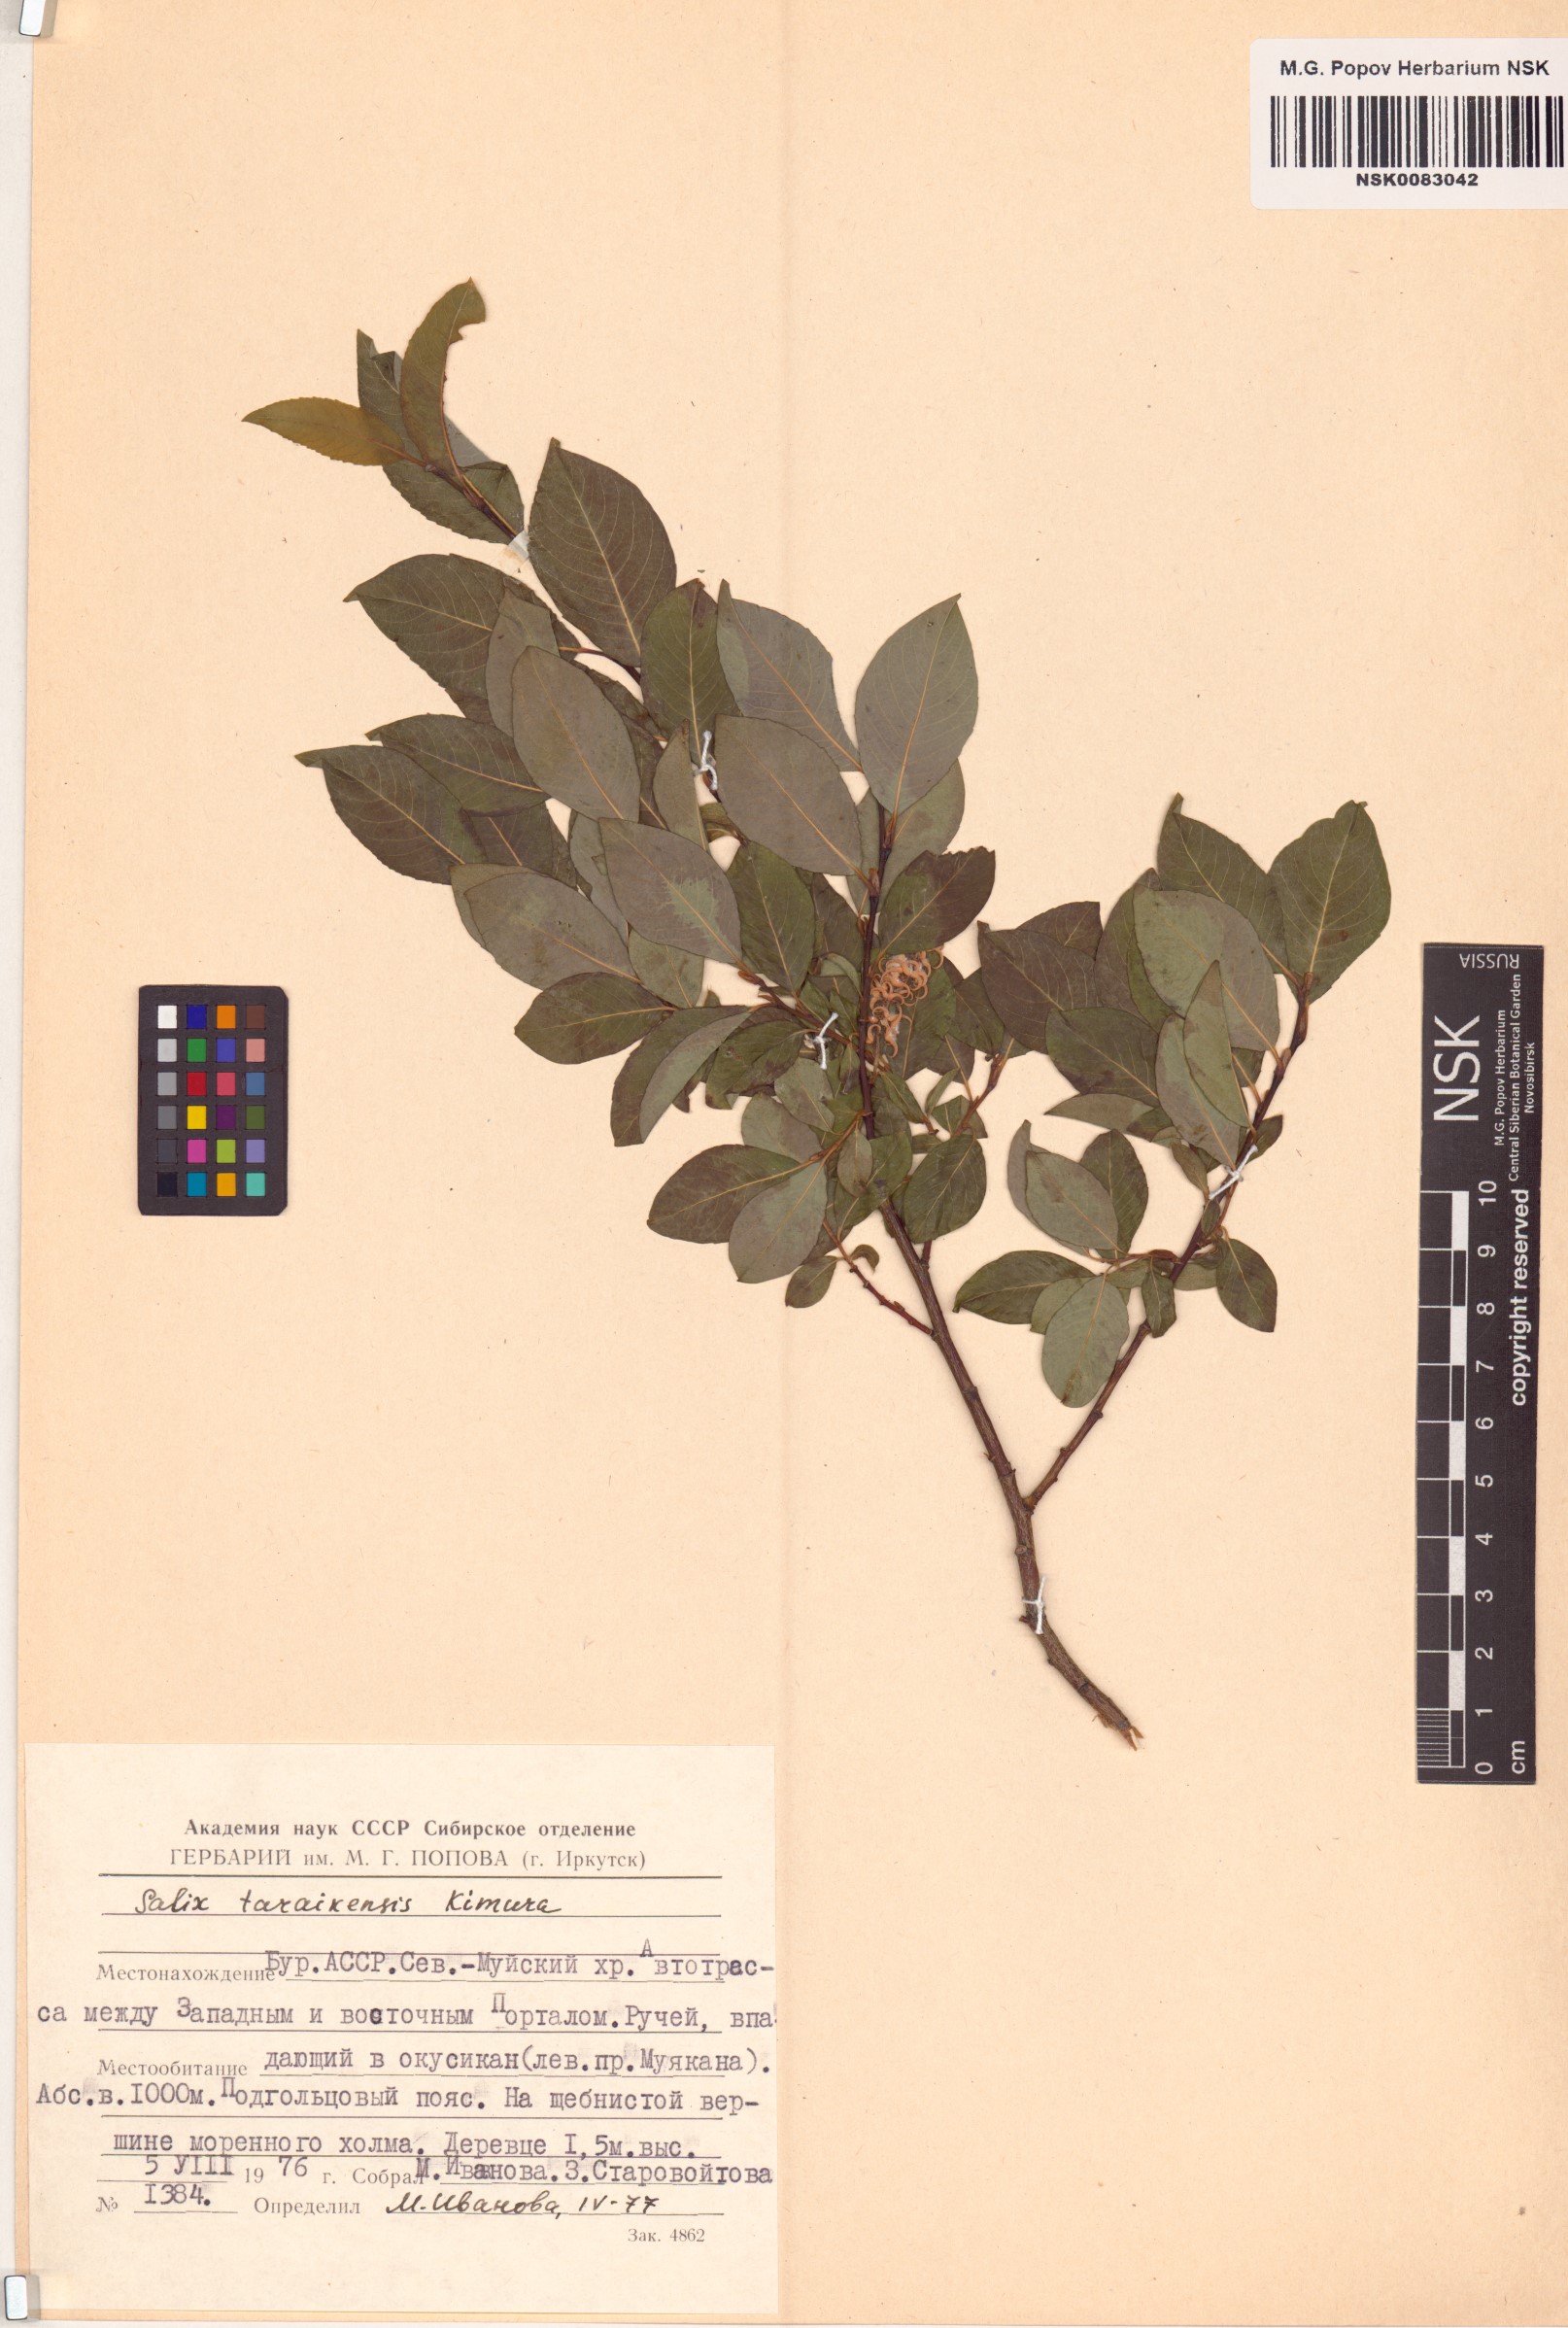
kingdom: Plantae
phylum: Tracheophyta
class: Magnoliopsida
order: Malpighiales
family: Salicaceae
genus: Salix
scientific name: Salix taraikensis
